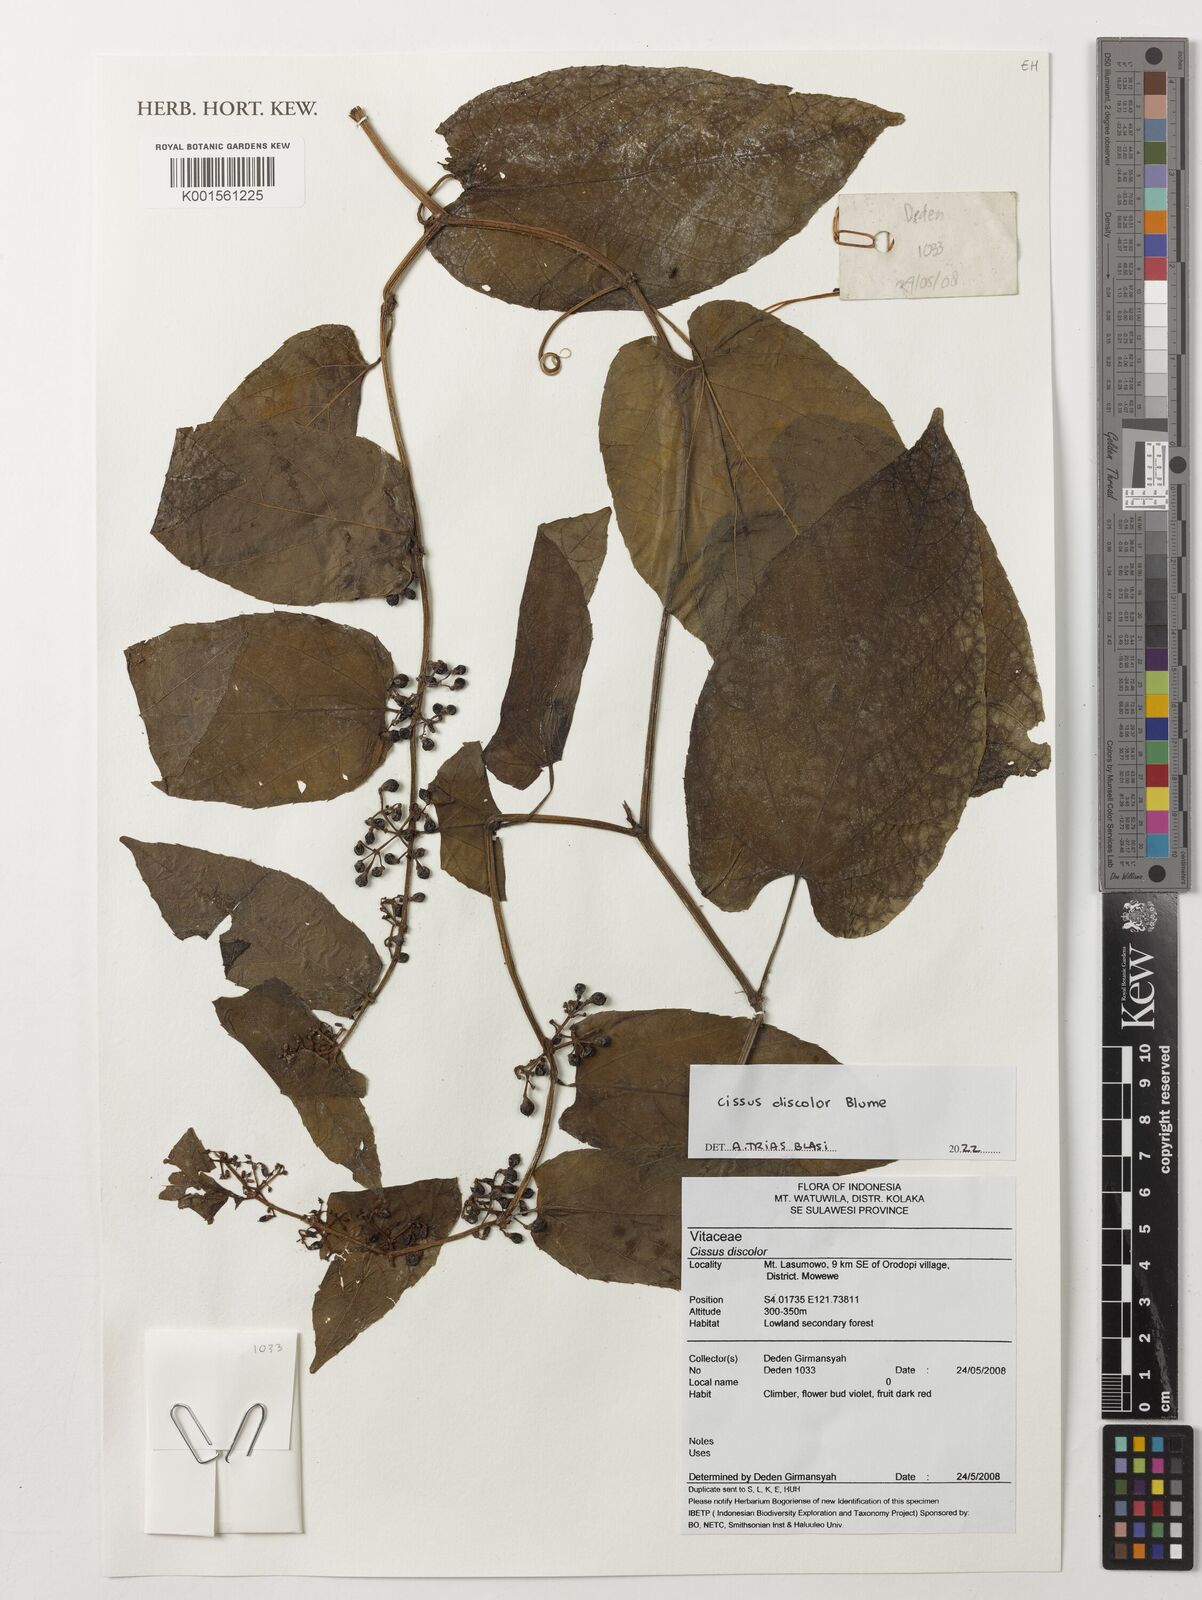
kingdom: Plantae
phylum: Tracheophyta
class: Magnoliopsida
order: Vitales
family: Vitaceae
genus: Cissus
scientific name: Cissus discolor
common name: Climbing-begonia
